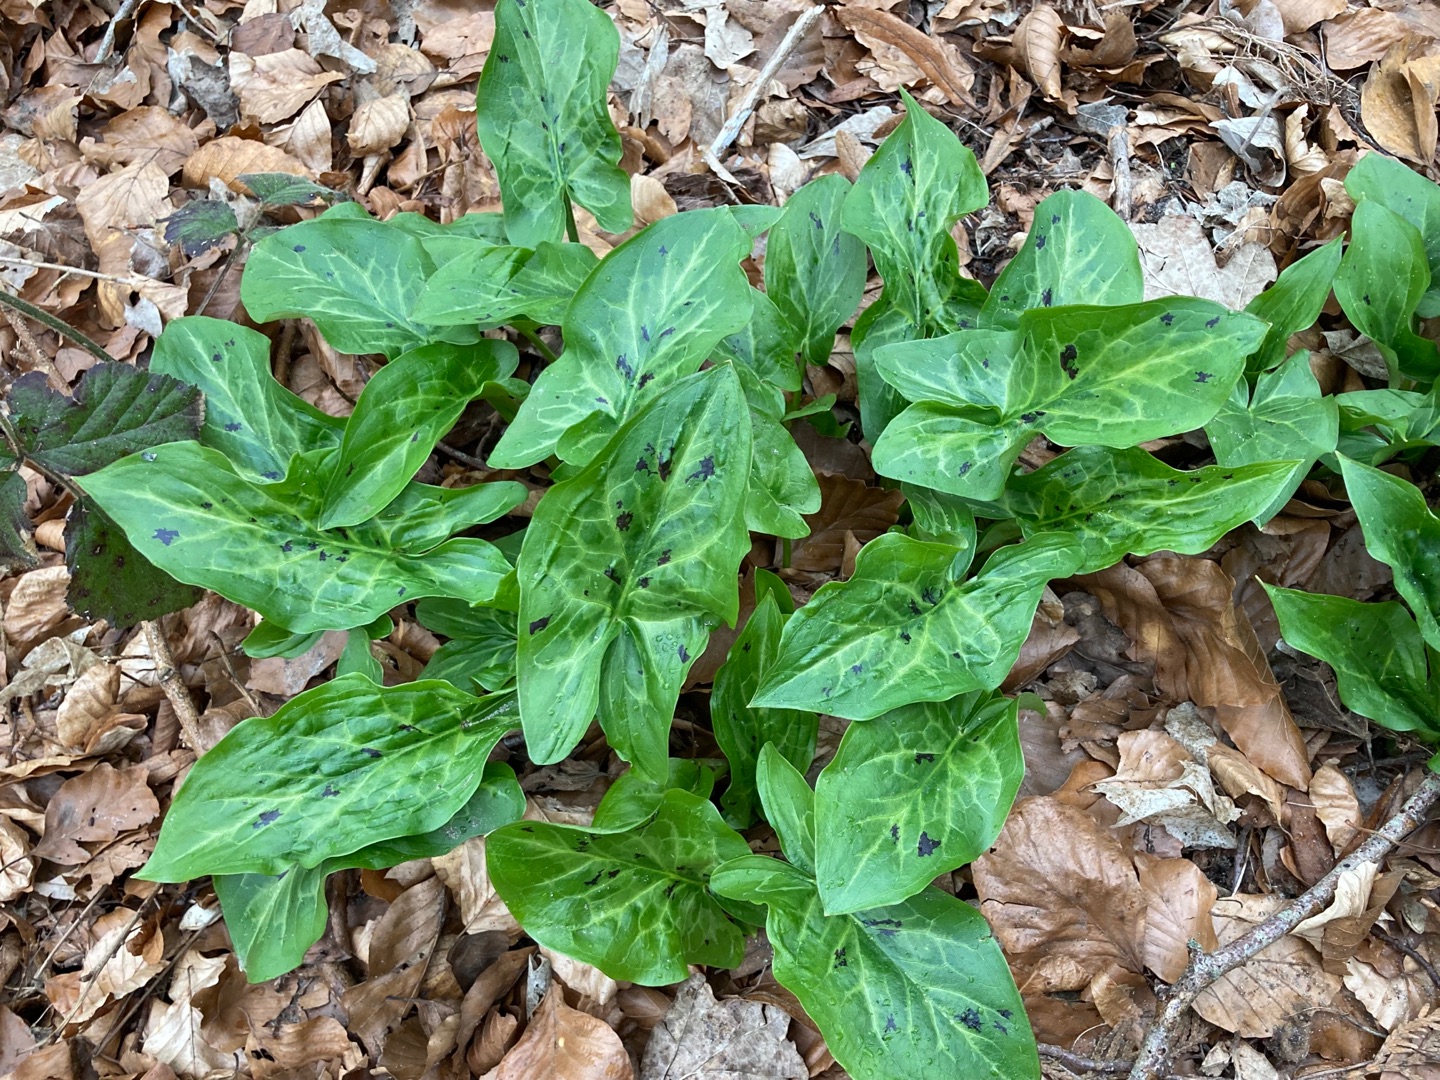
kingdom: Plantae
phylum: Tracheophyta
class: Liliopsida
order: Alismatales
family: Araceae
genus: Arum
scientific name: Arum maculatum
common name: Plettet arum
